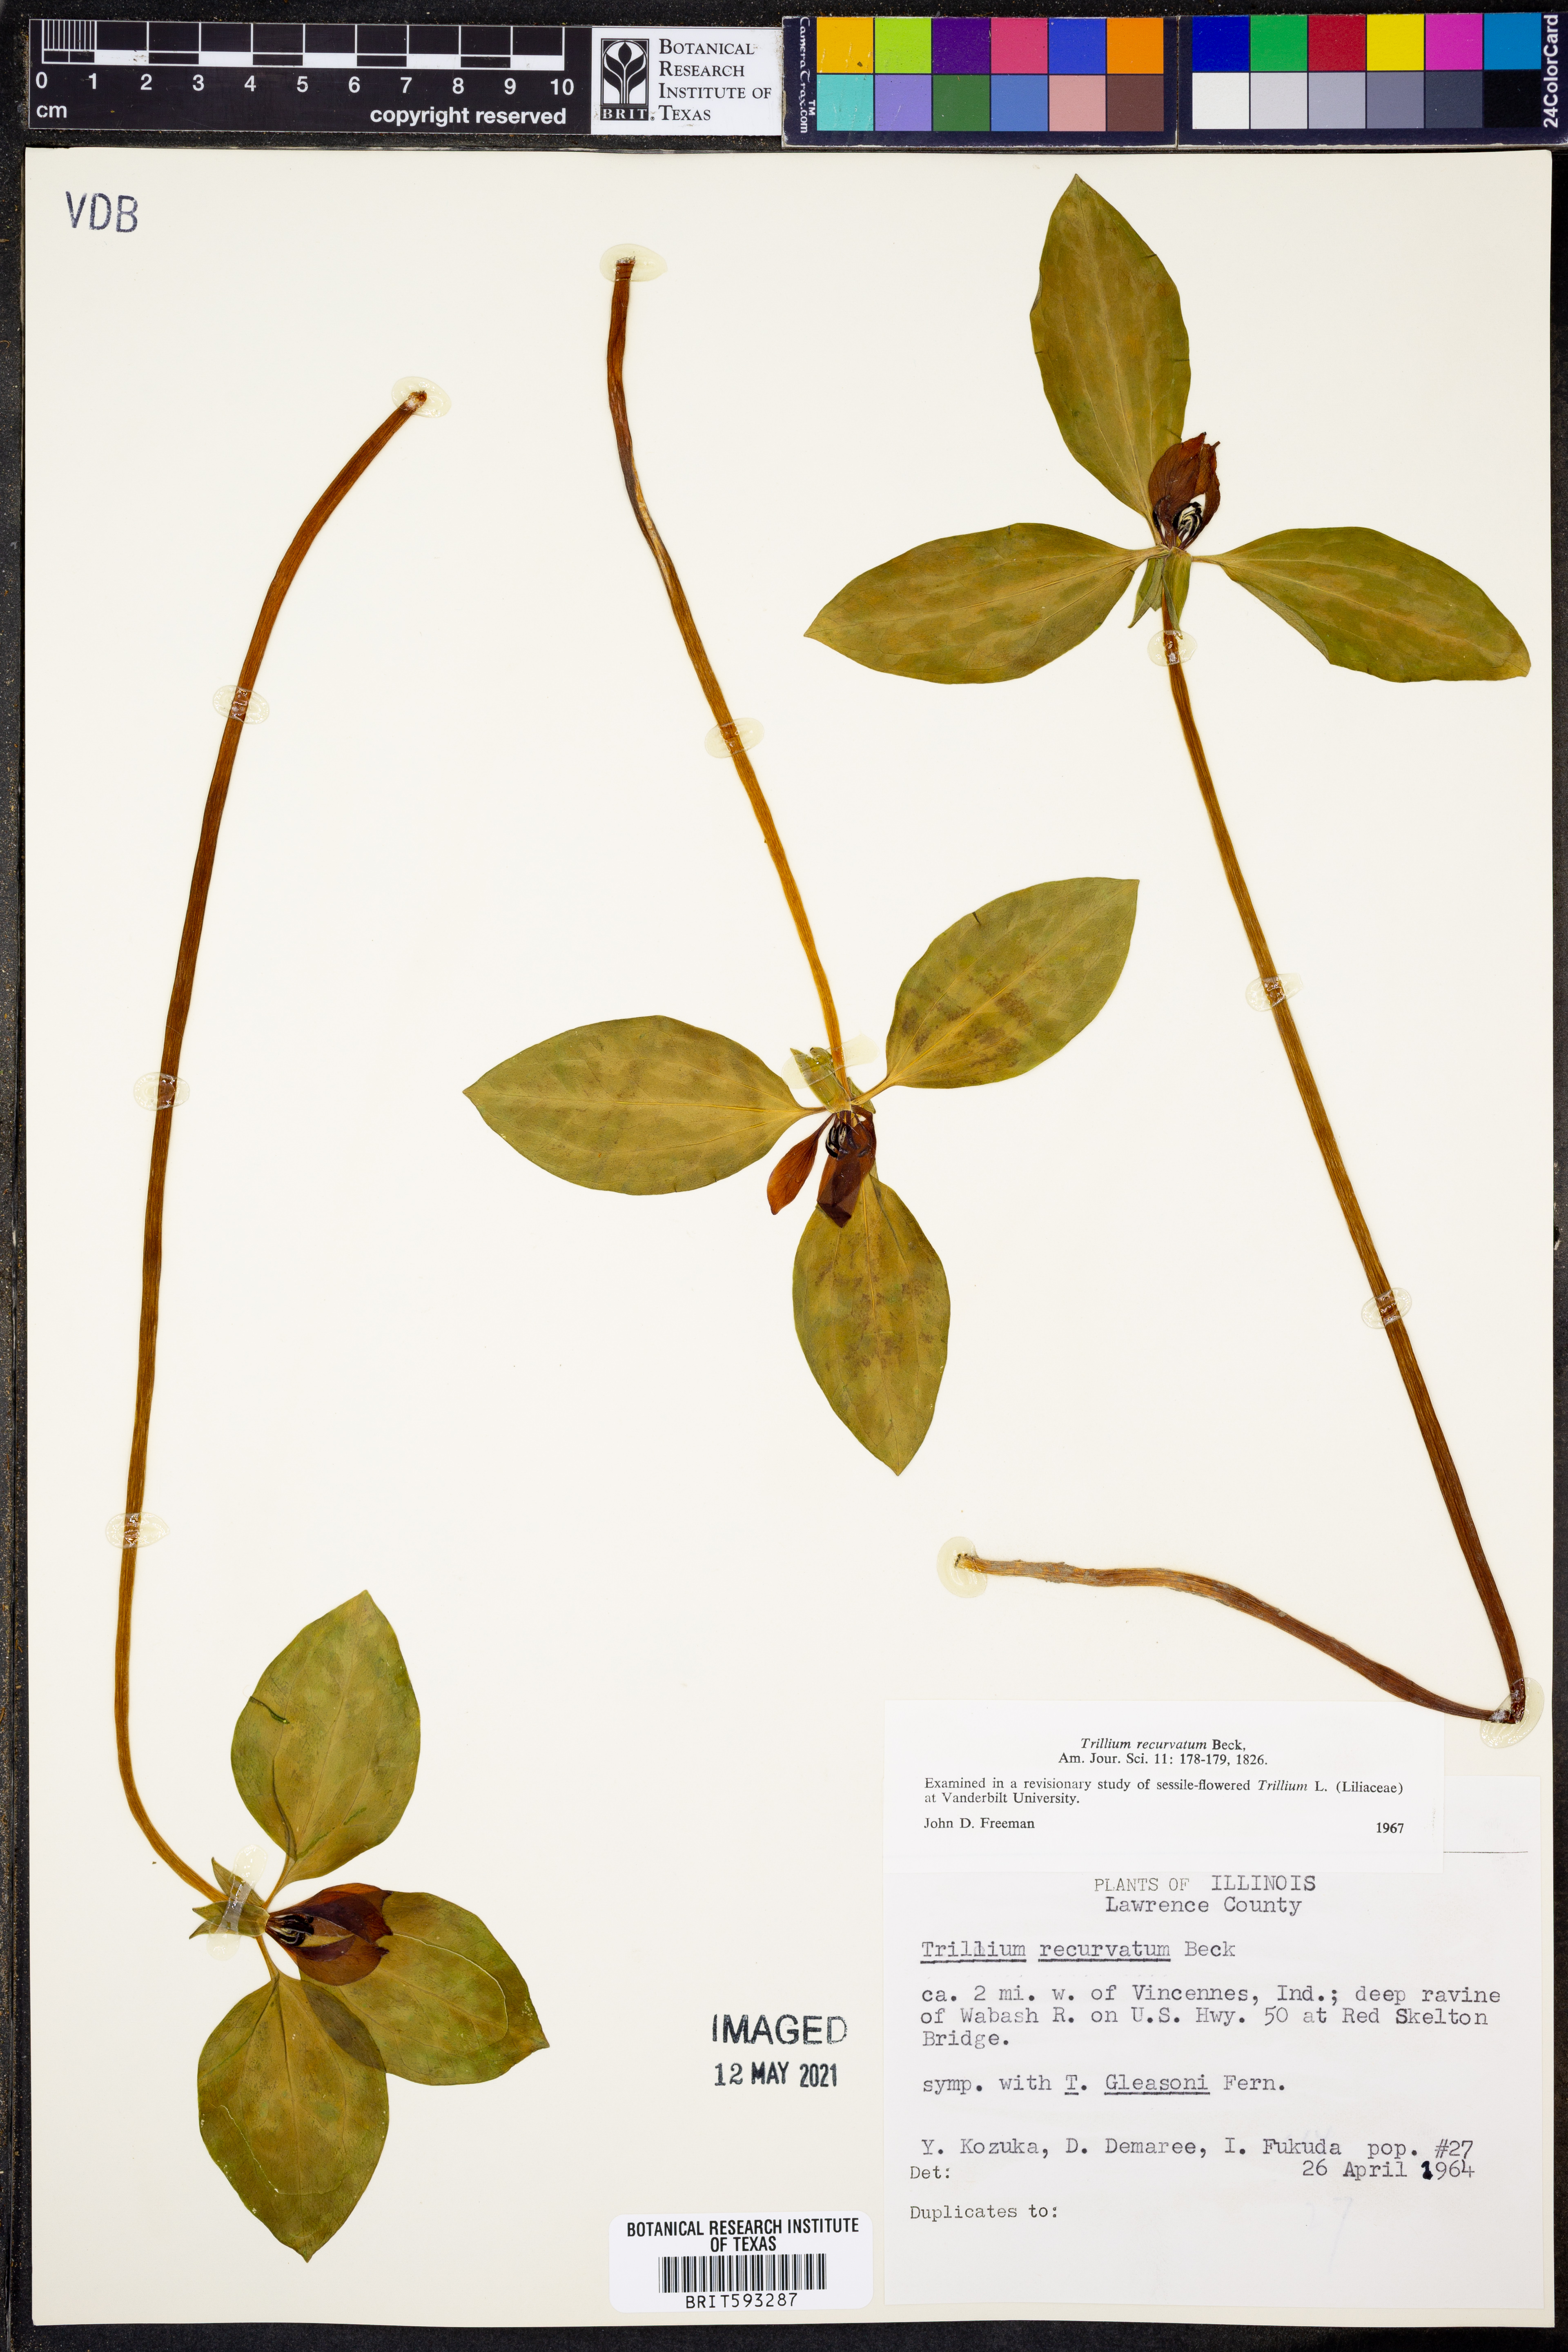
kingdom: Plantae
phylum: Tracheophyta
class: Liliopsida
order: Liliales
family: Melanthiaceae
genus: Trillium
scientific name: Trillium recurvatum
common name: Bloody butcher
